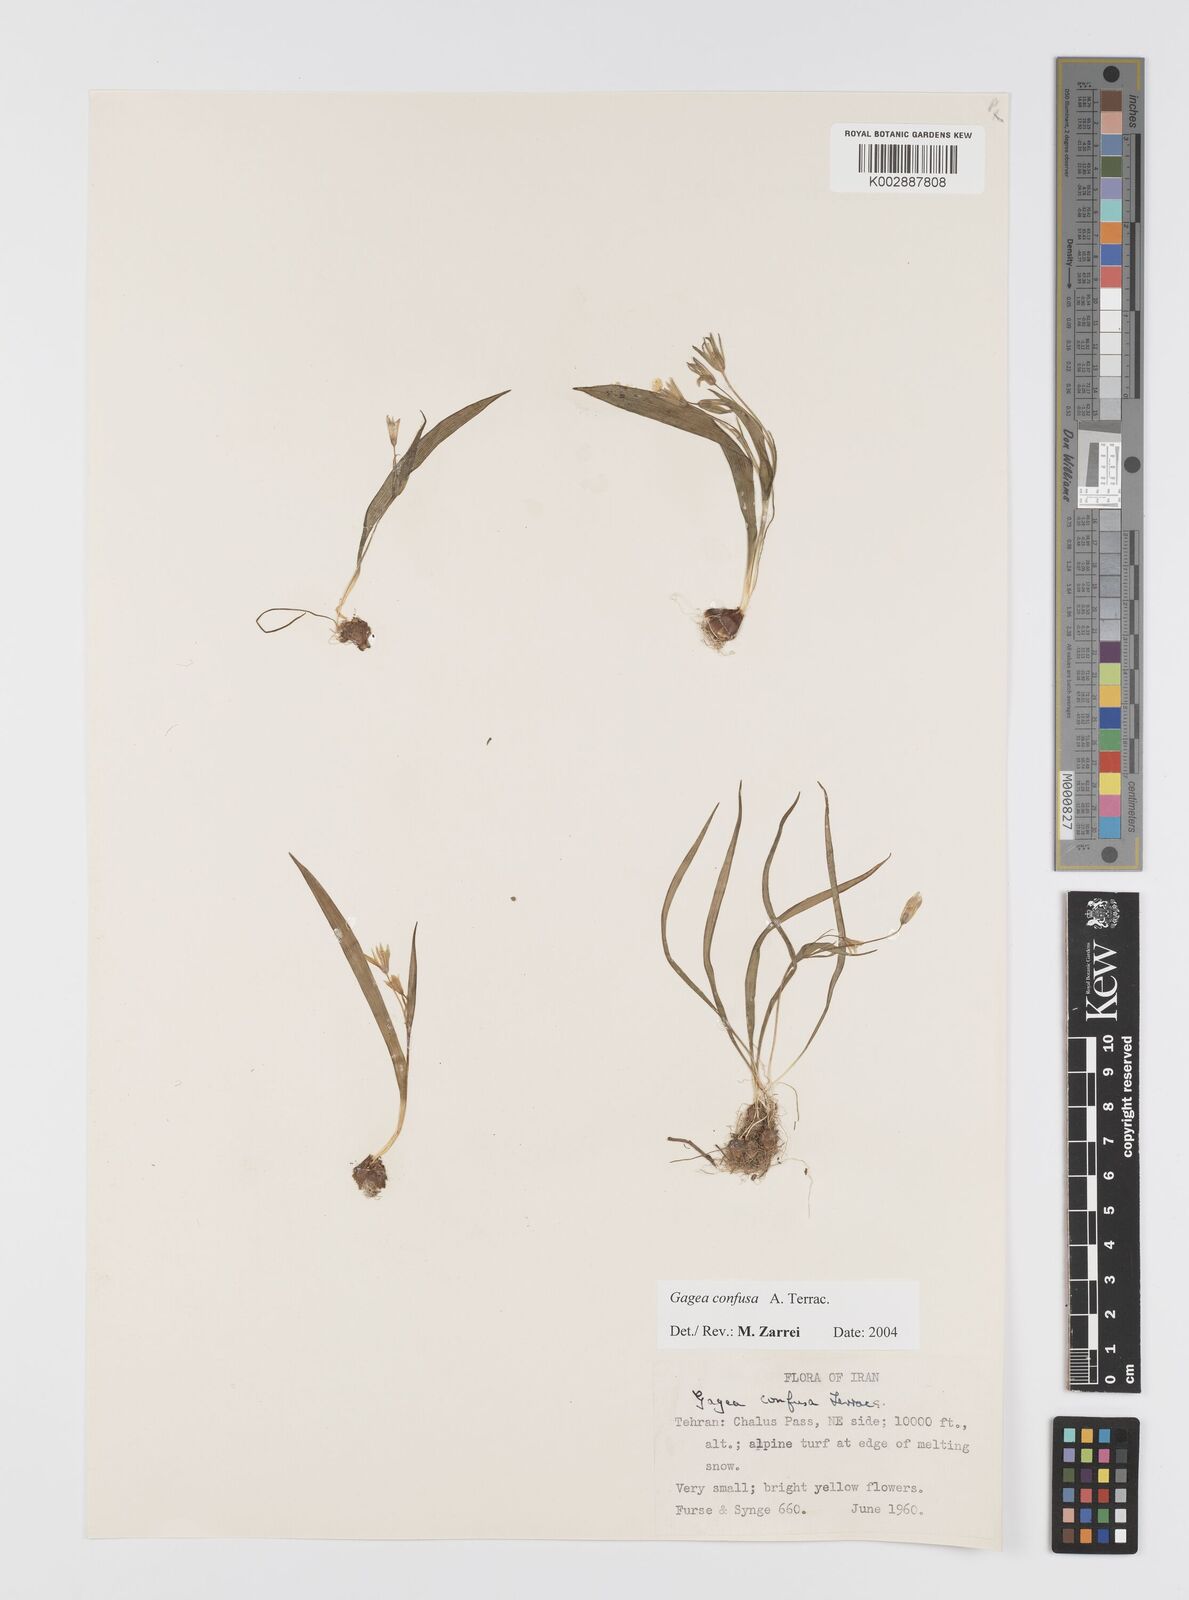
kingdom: Plantae
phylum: Tracheophyta
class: Liliopsida
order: Liliales
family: Liliaceae
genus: Gagea
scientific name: Gagea confusa
